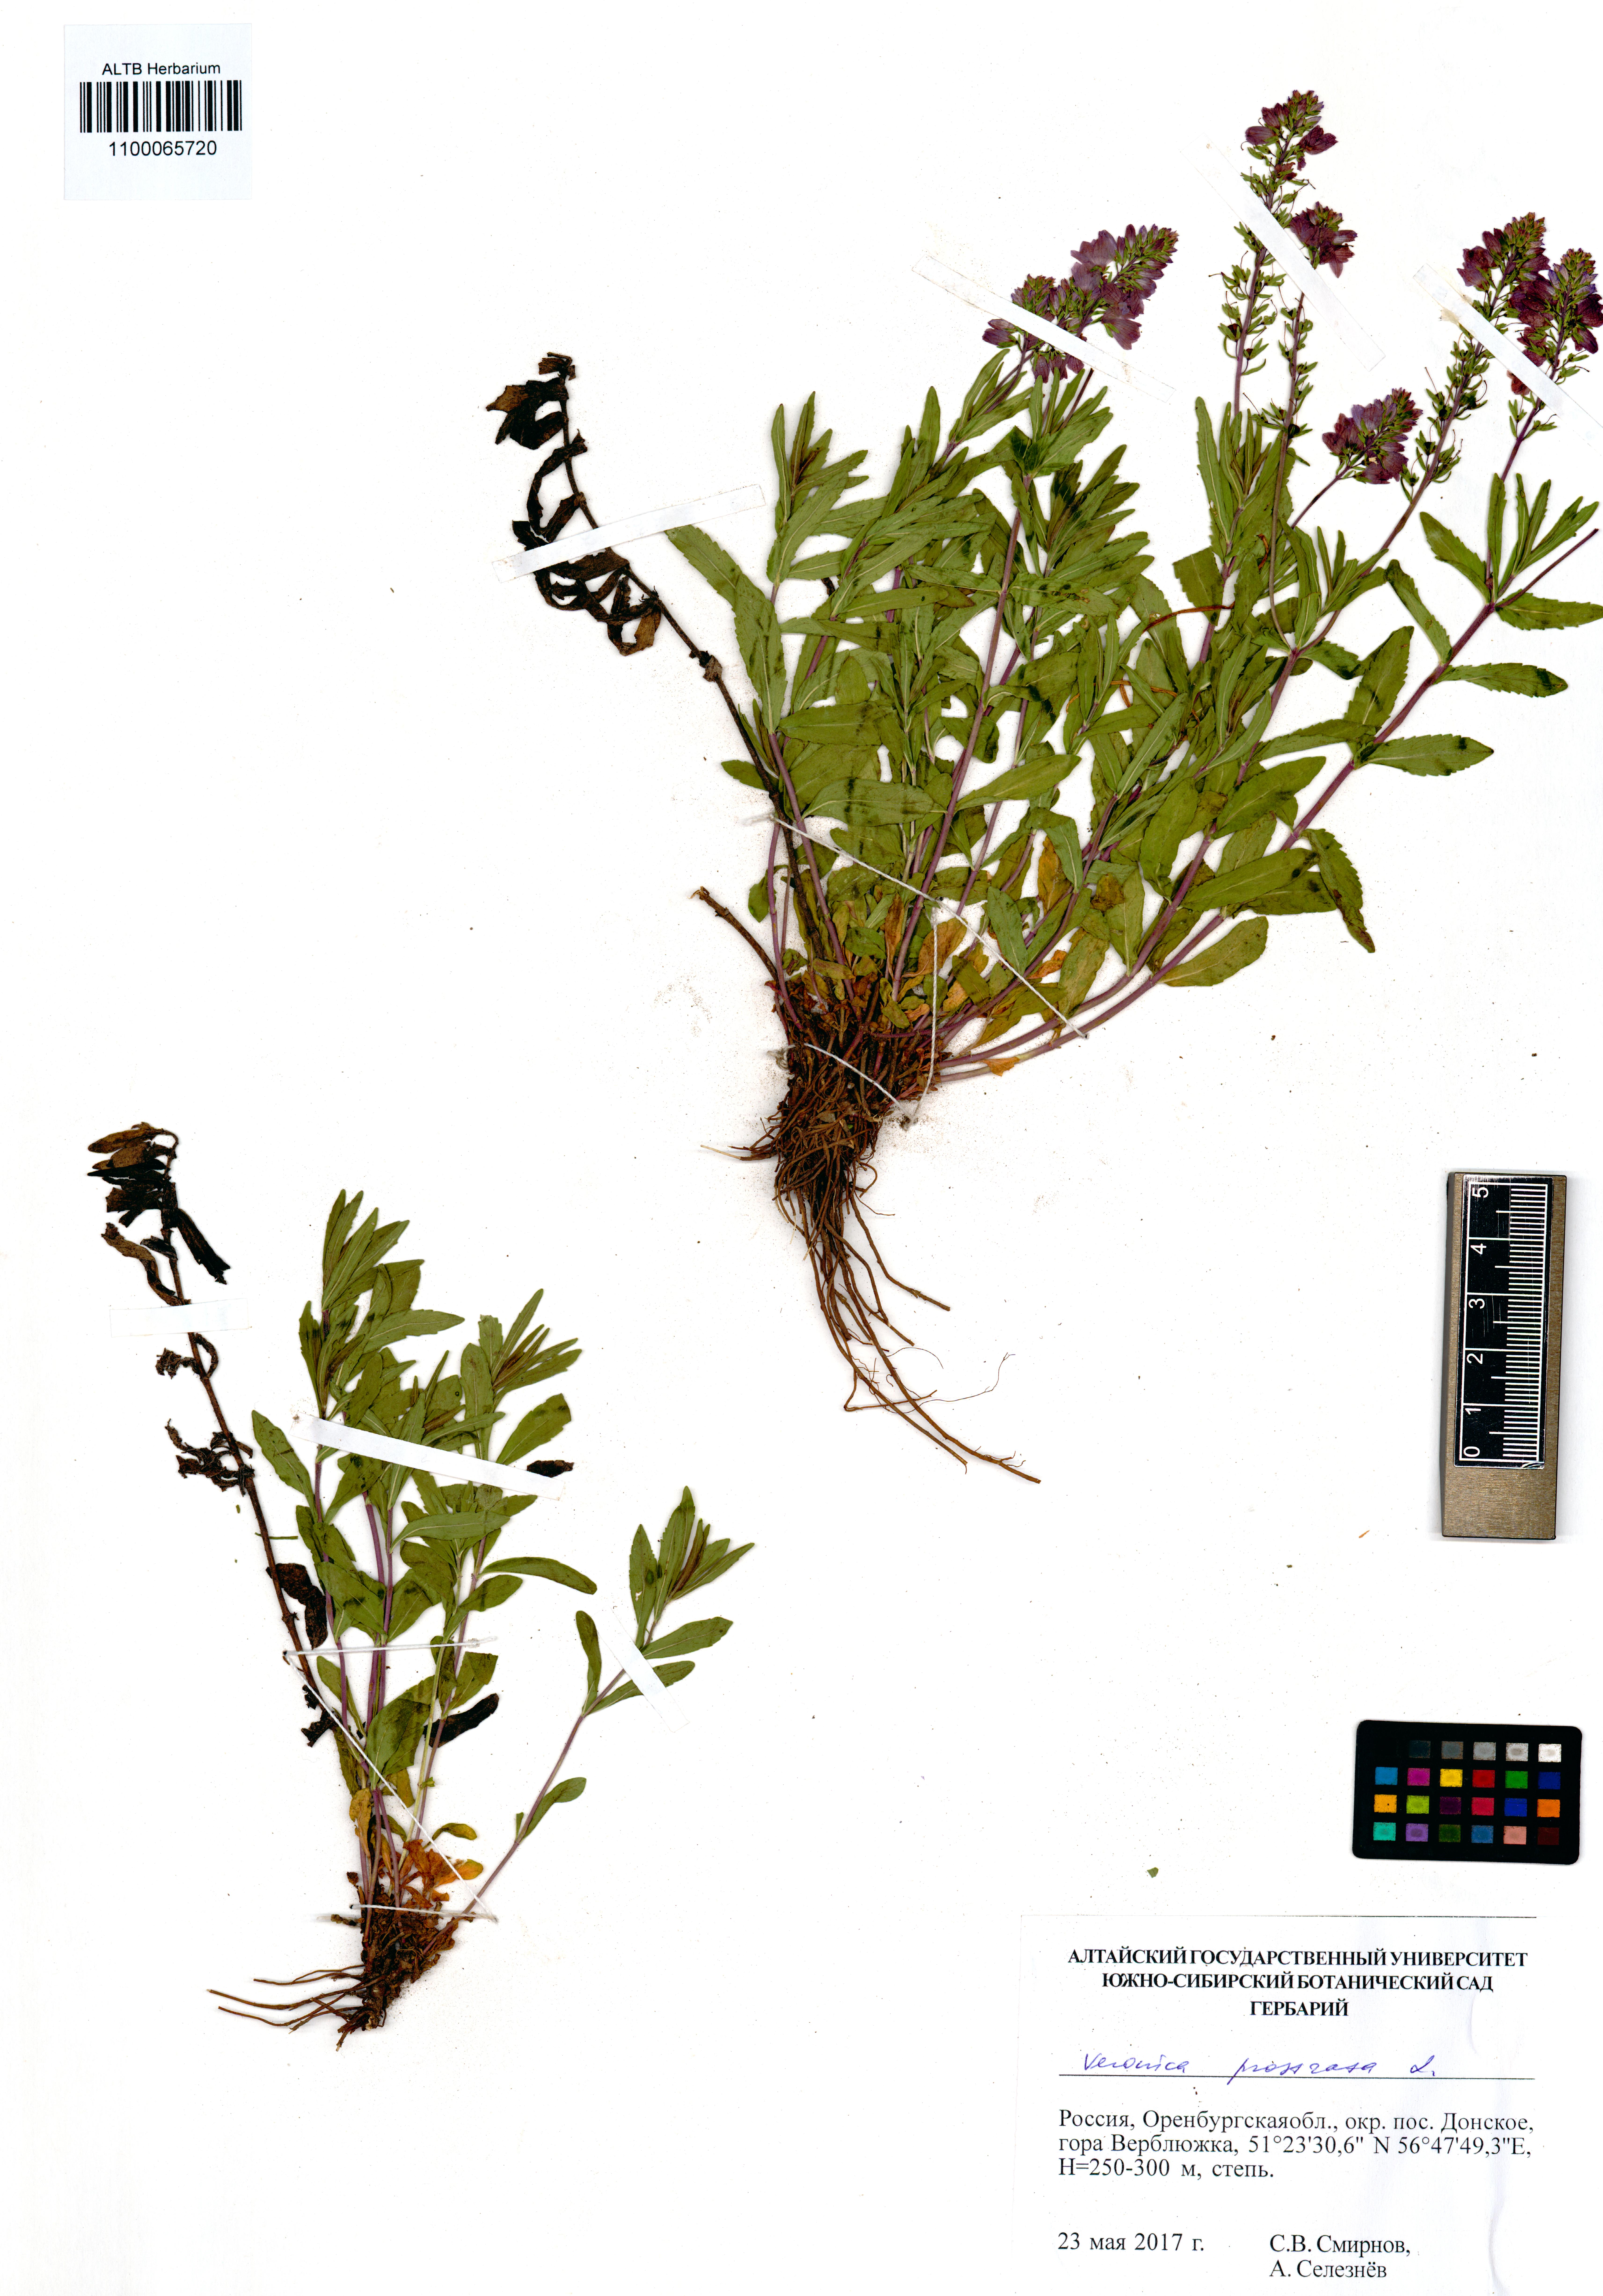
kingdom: Plantae
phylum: Tracheophyta
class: Magnoliopsida
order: Lamiales
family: Plantaginaceae
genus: Veronica
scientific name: Veronica prostrata
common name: Prostrate speedwell
